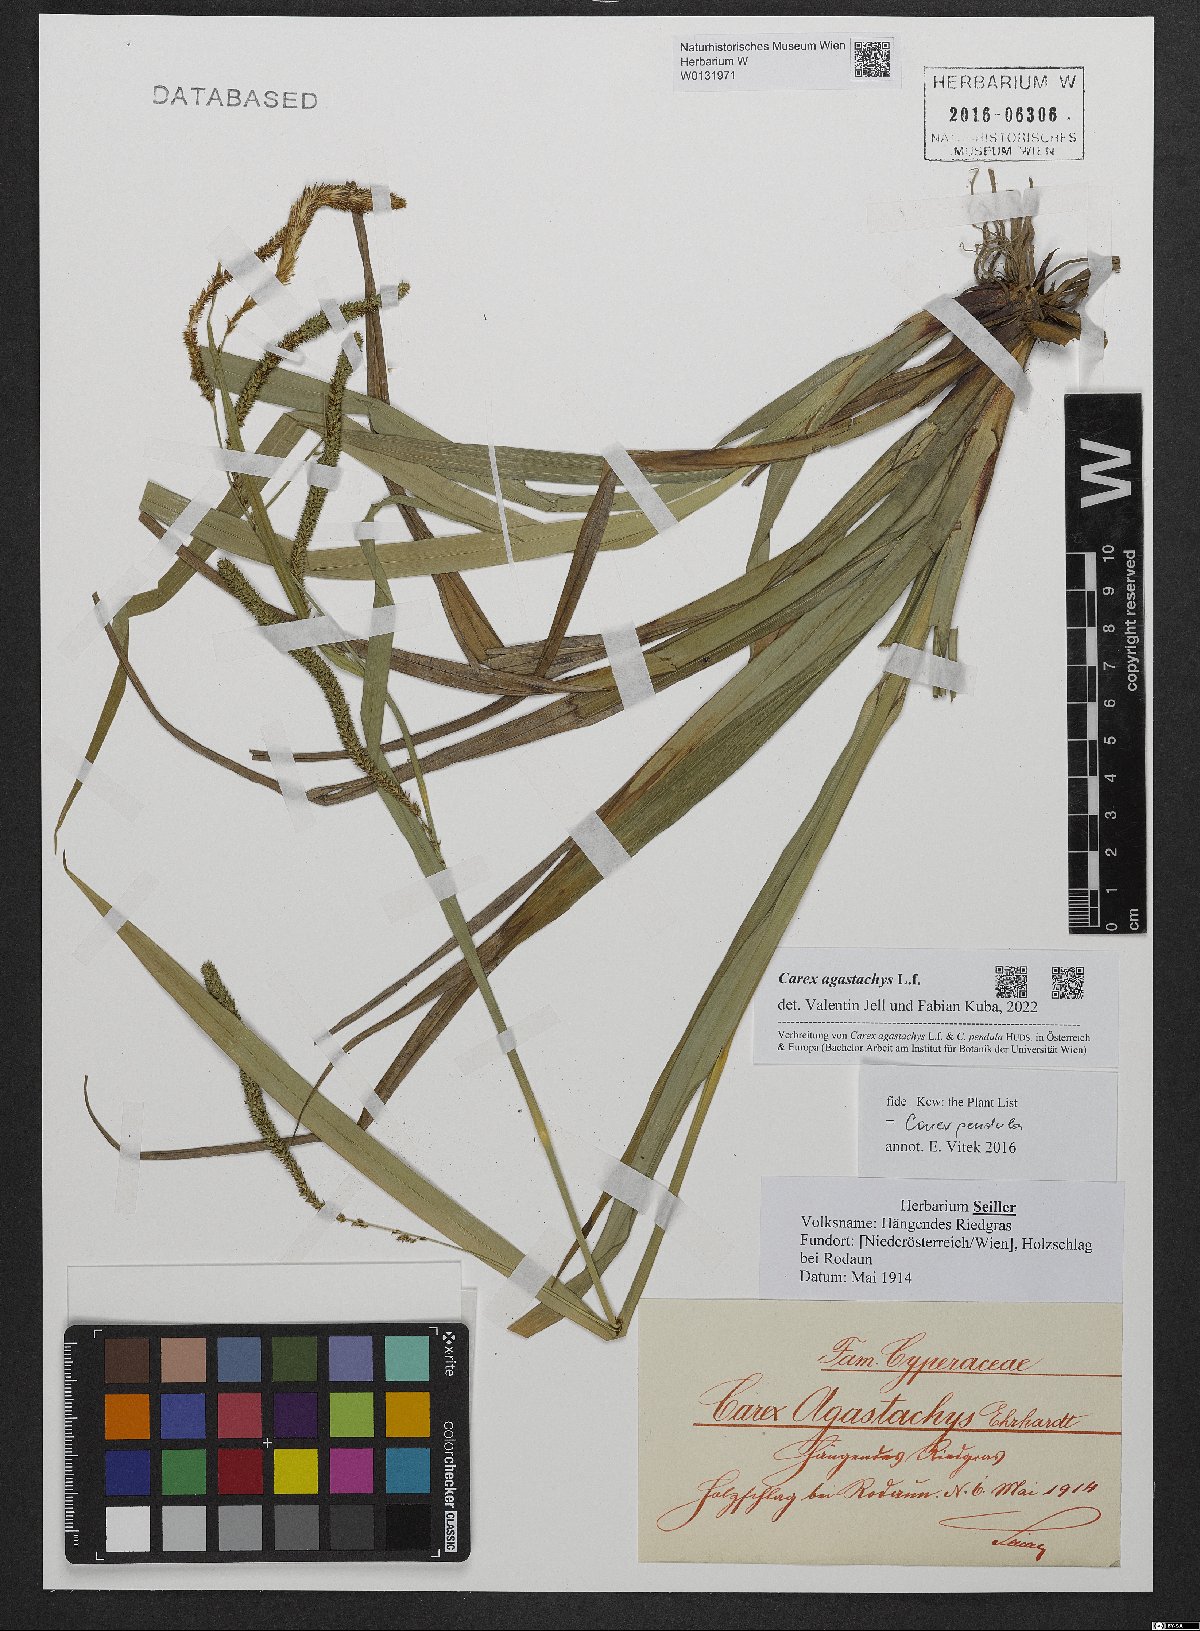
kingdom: Plantae
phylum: Tracheophyta
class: Liliopsida
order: Poales
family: Cyperaceae
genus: Carex
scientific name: Carex agastachys
